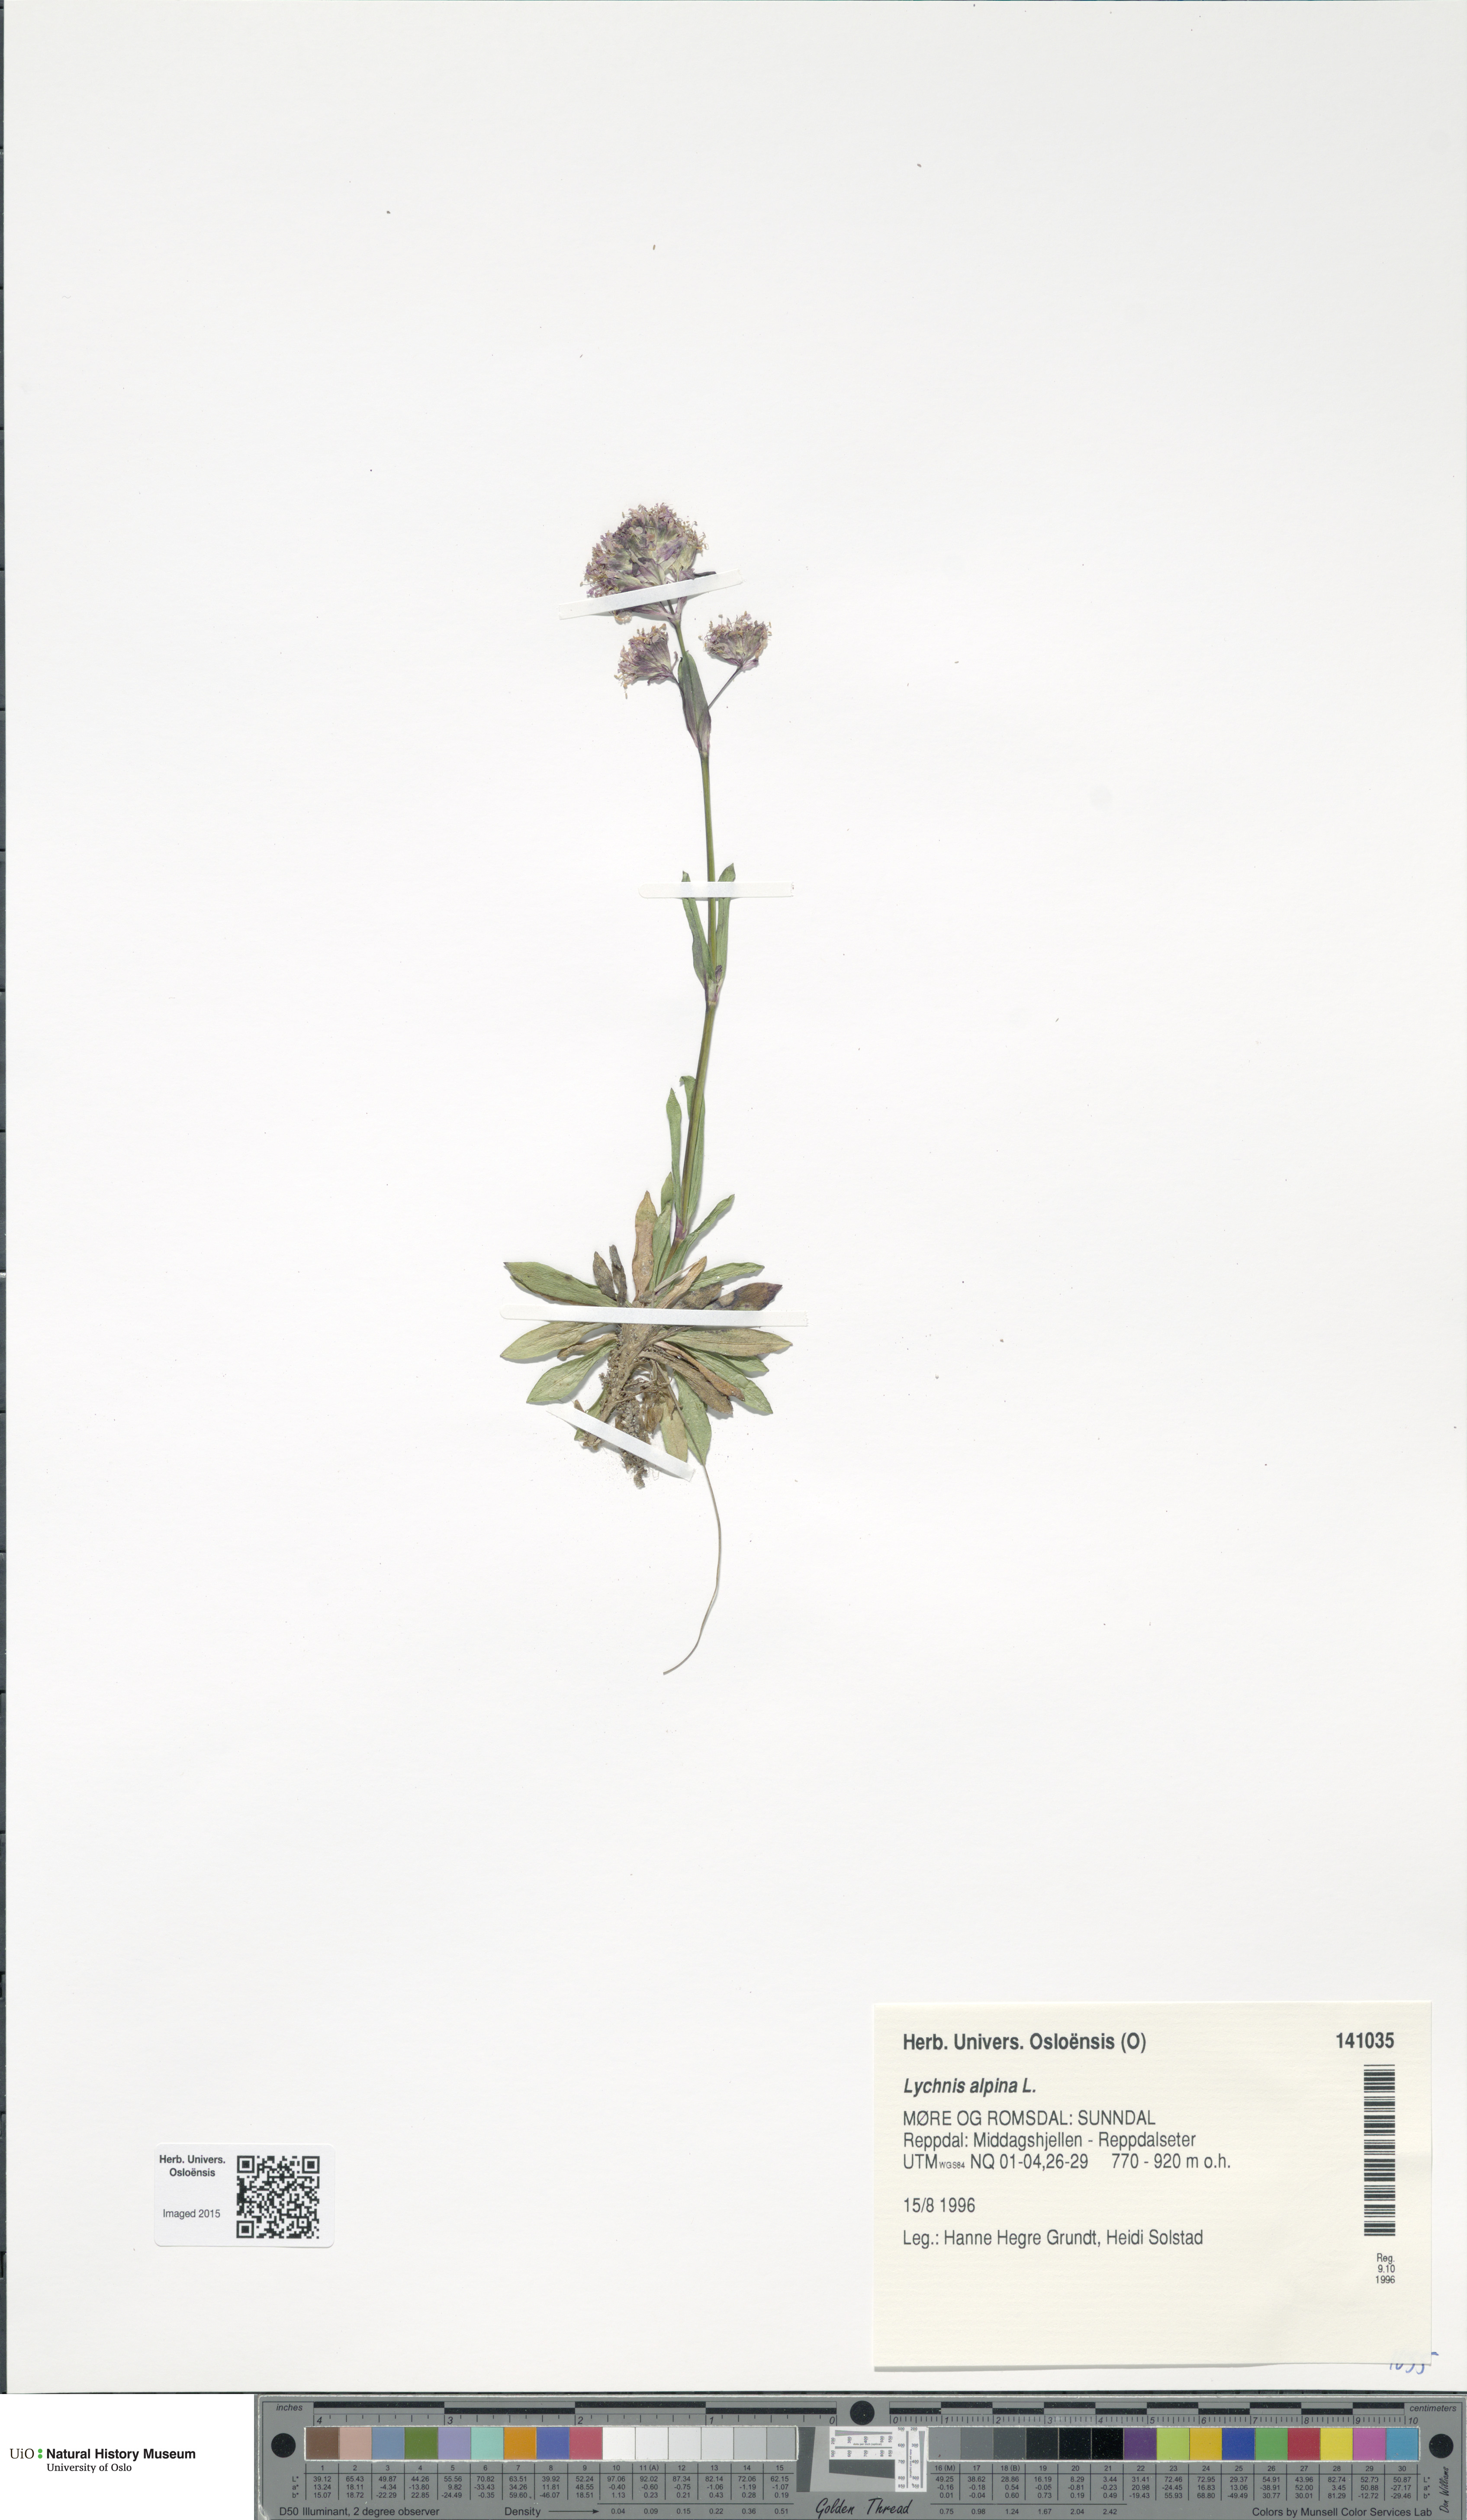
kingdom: Plantae
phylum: Tracheophyta
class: Magnoliopsida
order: Caryophyllales
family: Caryophyllaceae
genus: Viscaria
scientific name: Viscaria alpina
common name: Alpine campion
